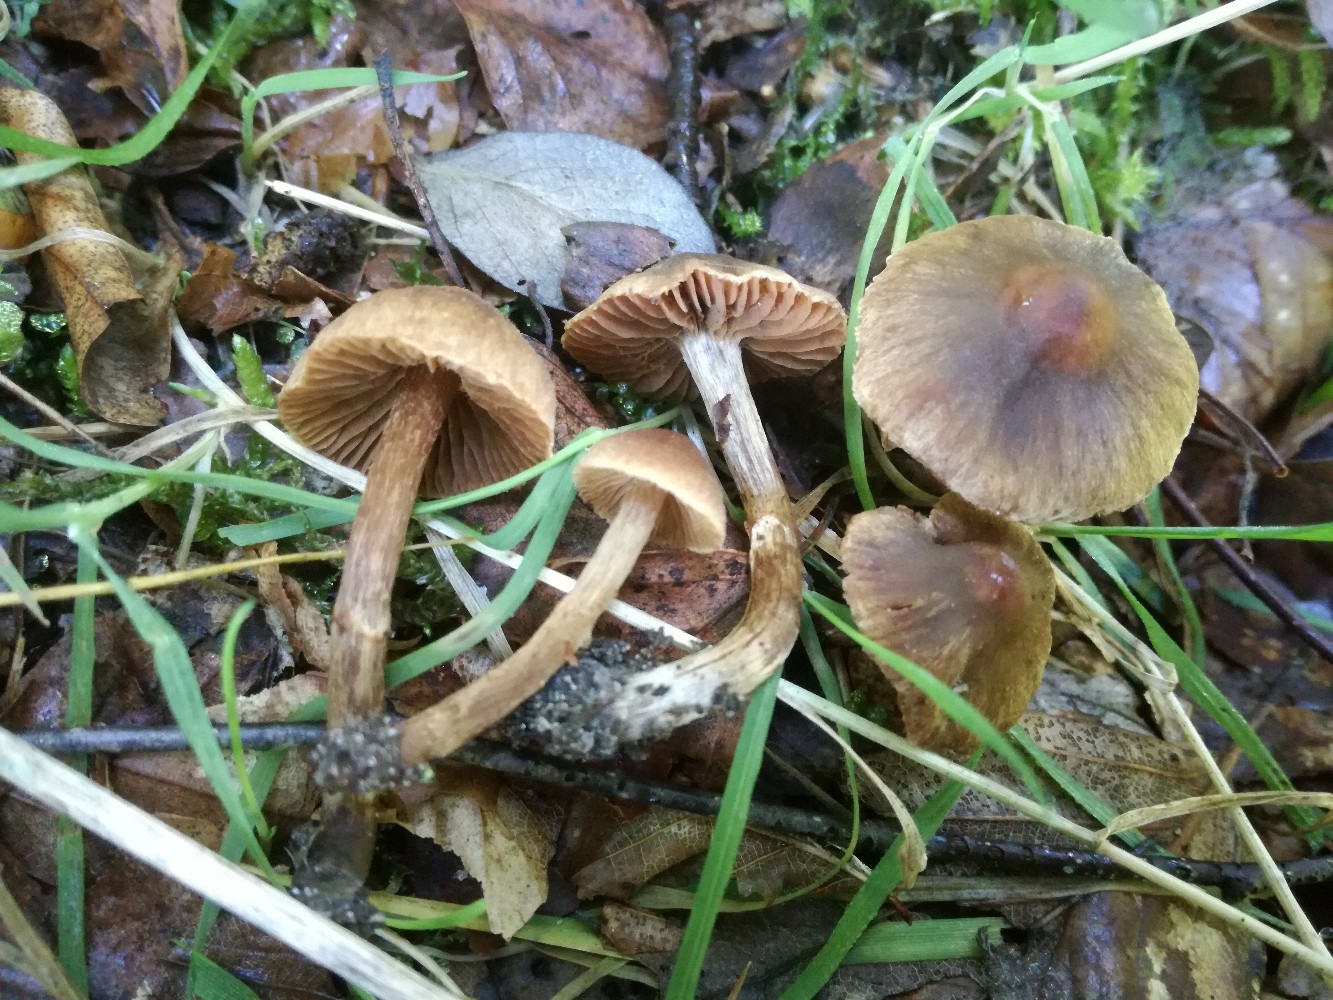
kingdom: Fungi
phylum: Basidiomycota
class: Agaricomycetes
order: Agaricales
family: Cortinariaceae
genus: Cortinarius
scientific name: Cortinarius castaneopallidus
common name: bronzetrævlet slørhat
